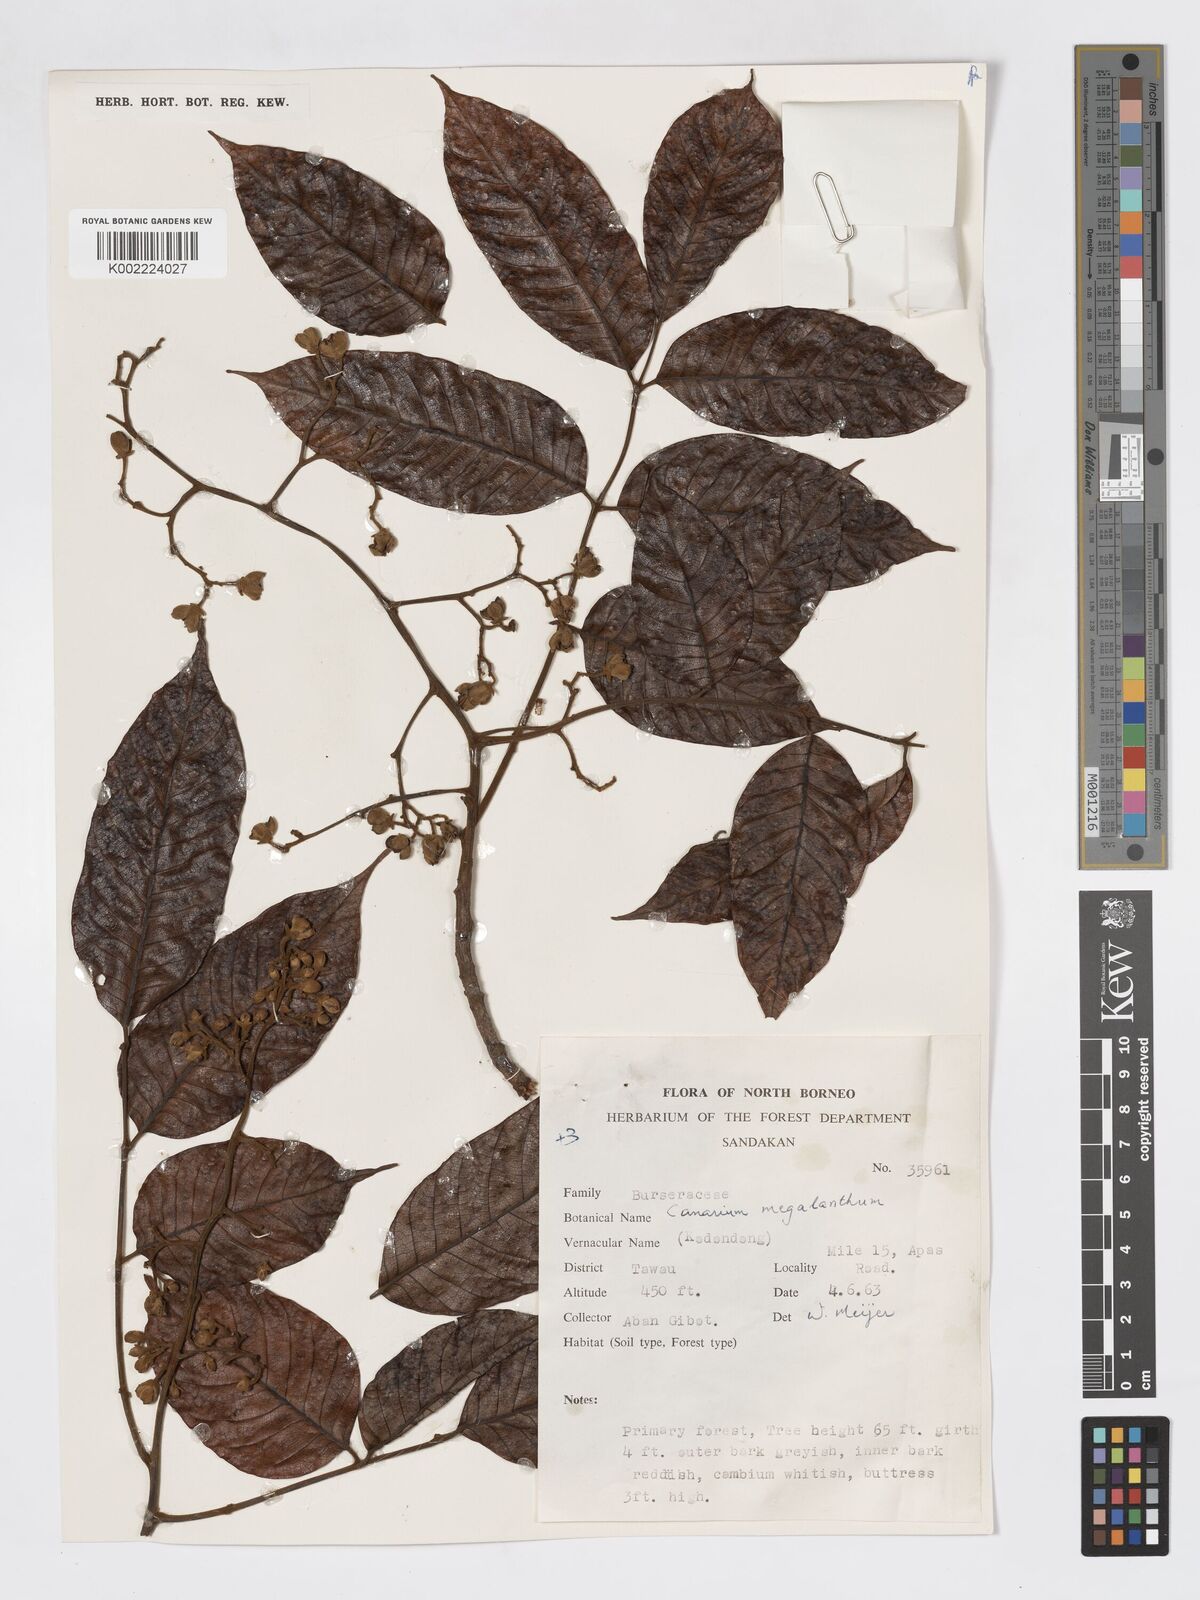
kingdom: Plantae
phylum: Tracheophyta
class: Magnoliopsida
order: Sapindales
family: Burseraceae
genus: Canarium
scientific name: Canarium megalanthum
